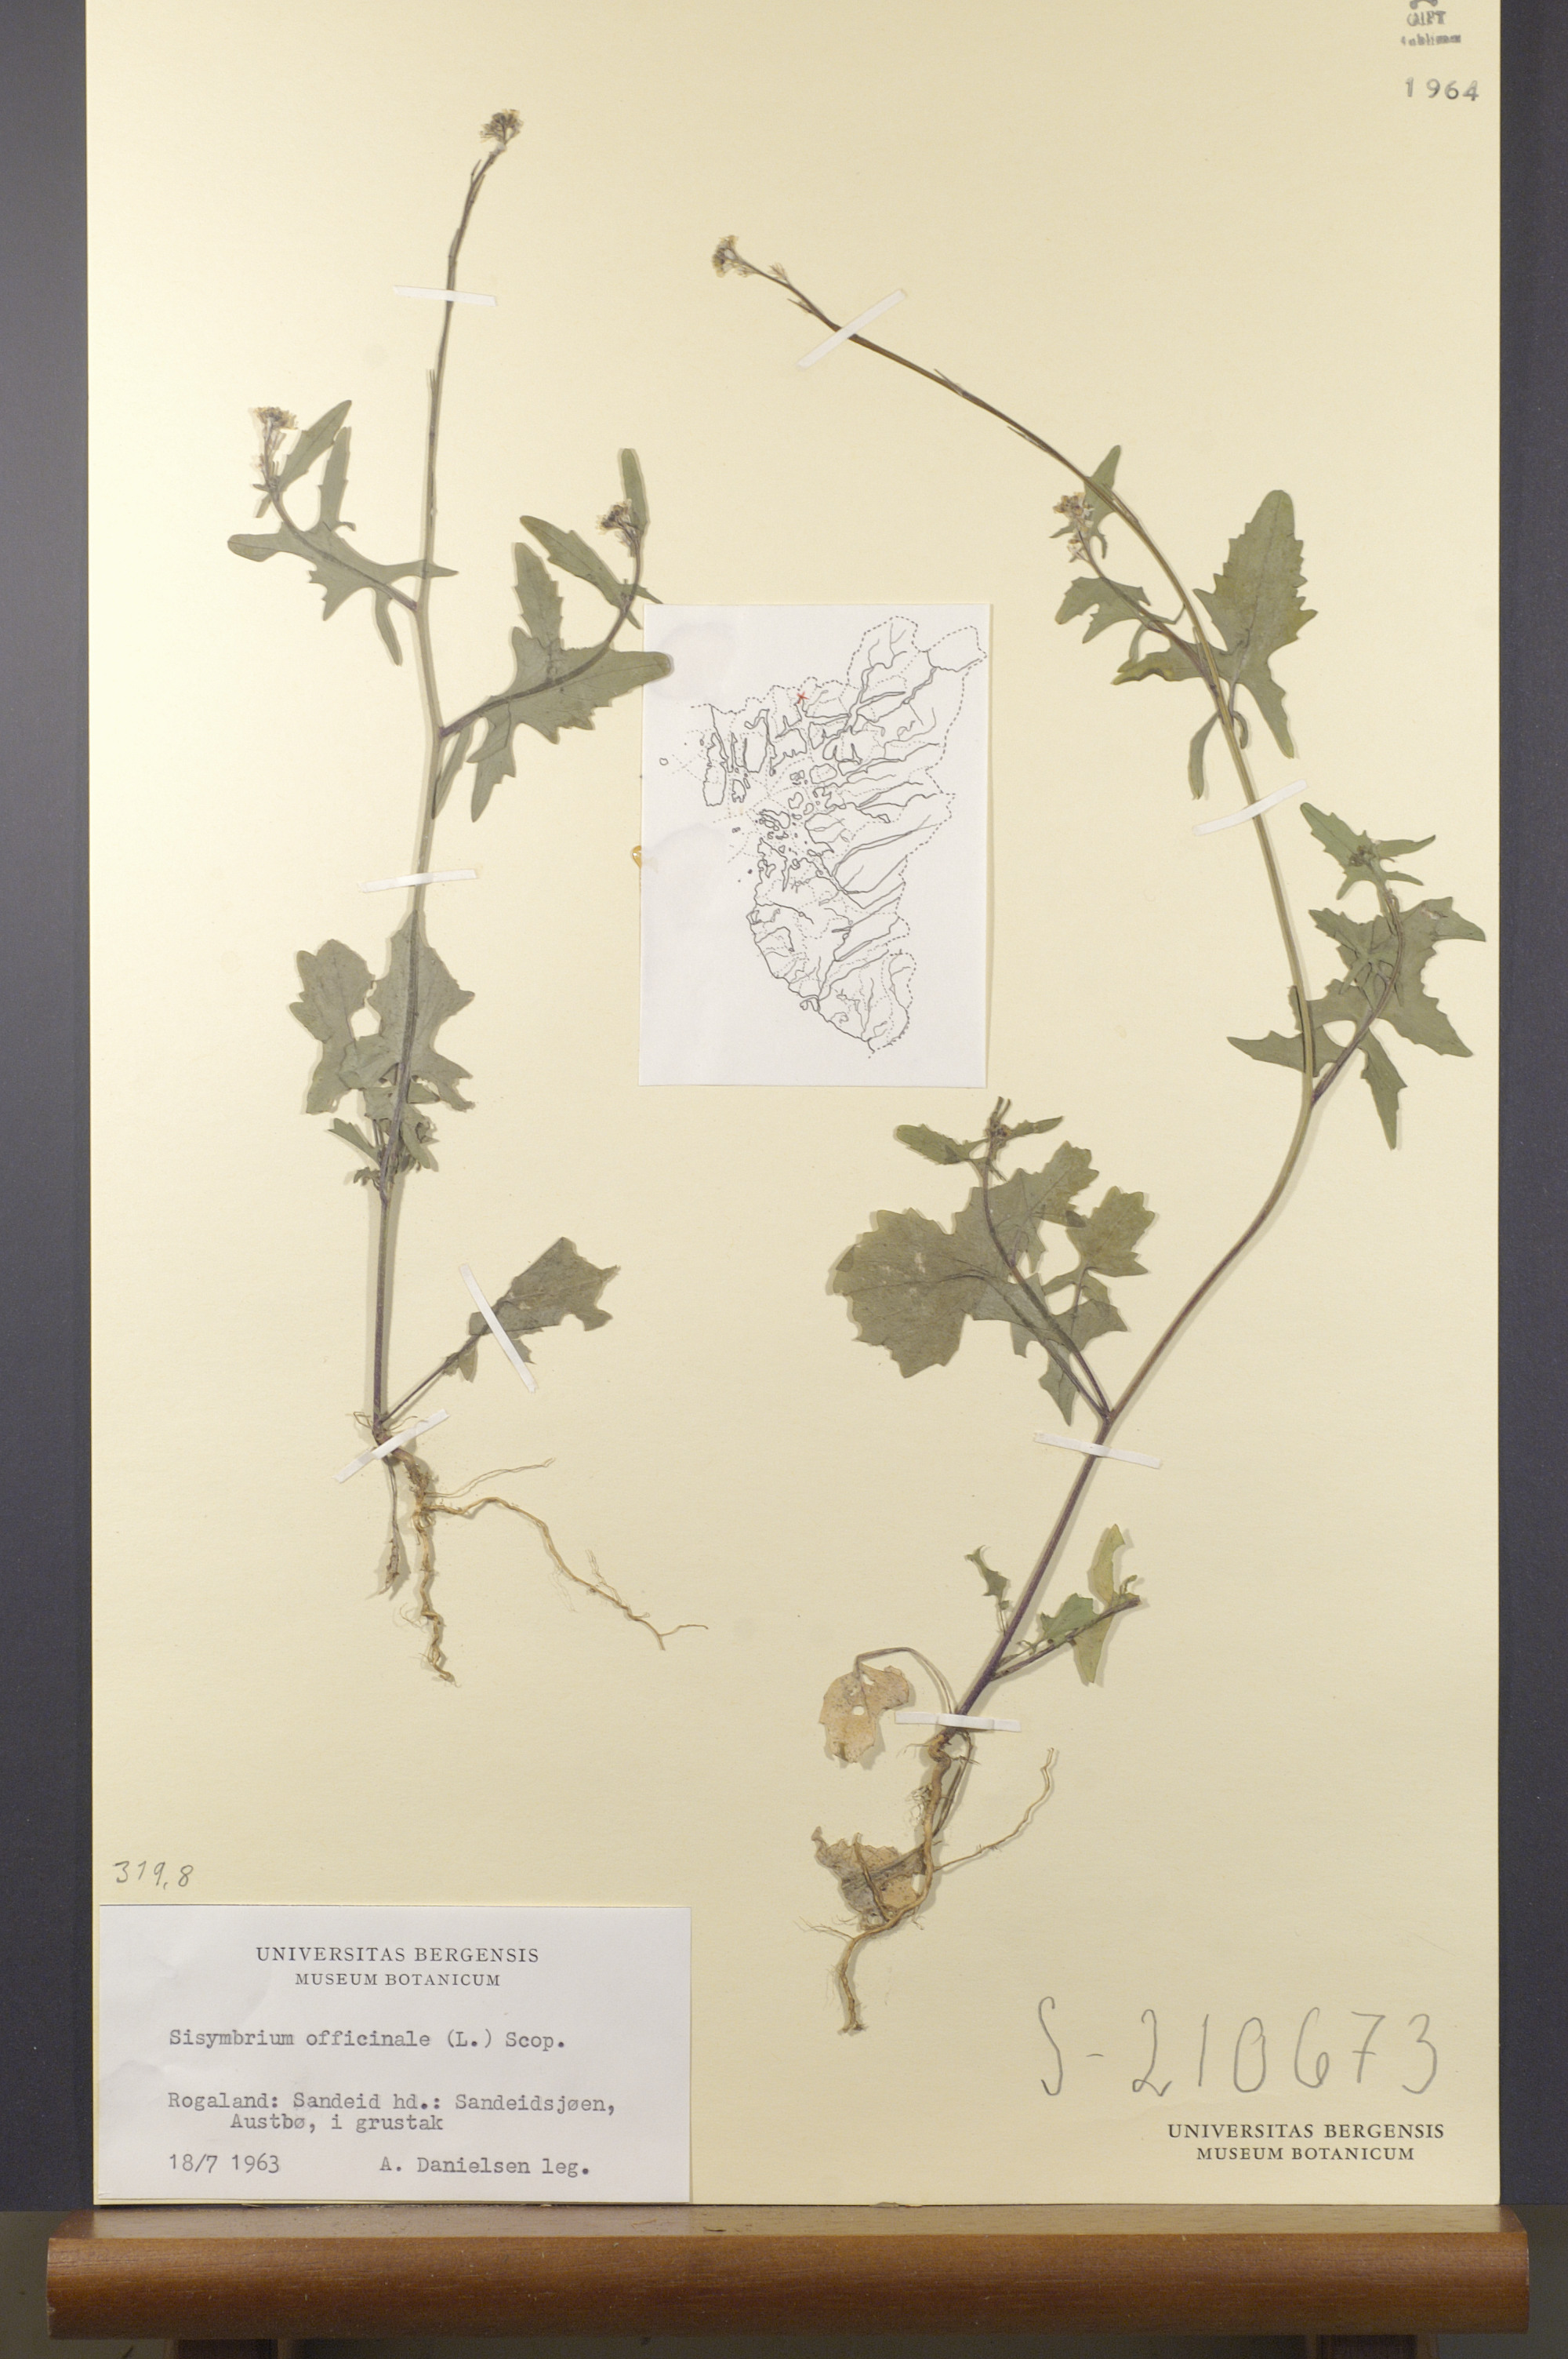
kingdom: Plantae
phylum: Tracheophyta
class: Magnoliopsida
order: Brassicales
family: Brassicaceae
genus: Sisymbrium
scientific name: Sisymbrium officinale
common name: Hedge mustard
